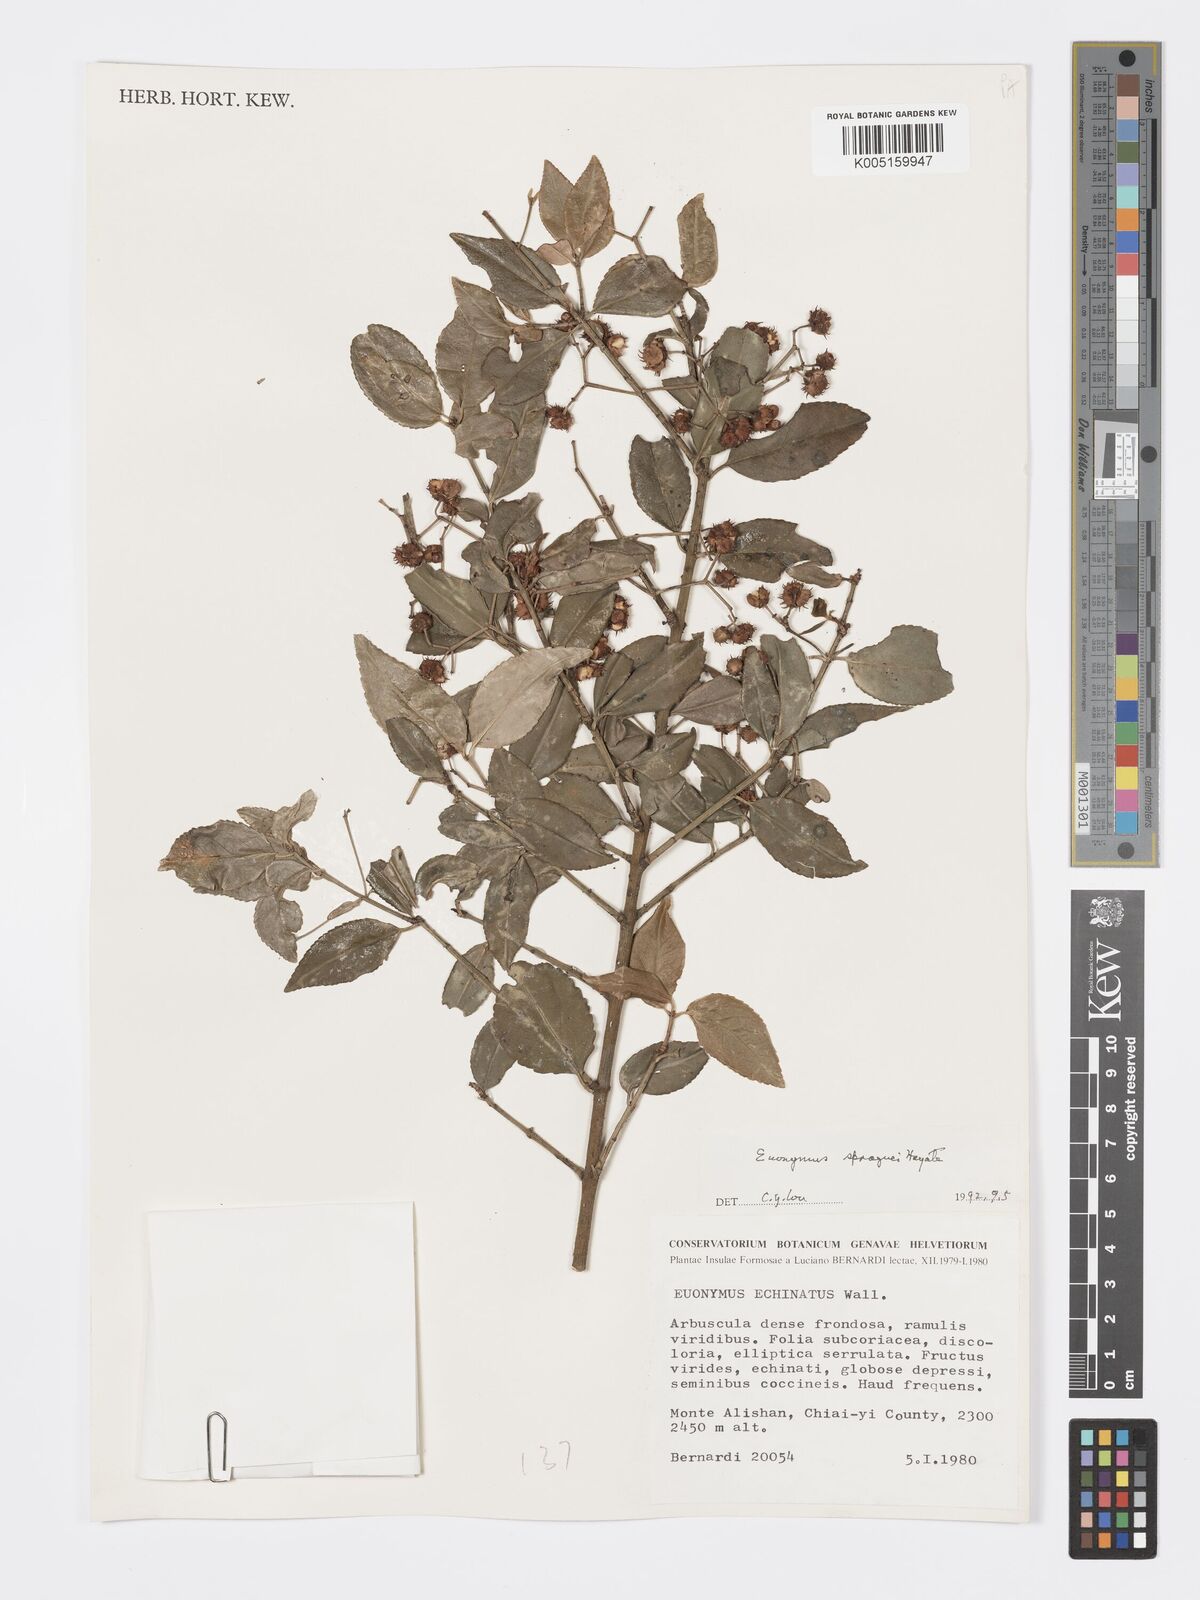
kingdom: Plantae
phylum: Tracheophyta
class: Magnoliopsida
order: Celastrales
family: Celastraceae
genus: Euonymus
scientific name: Euonymus echinatus
